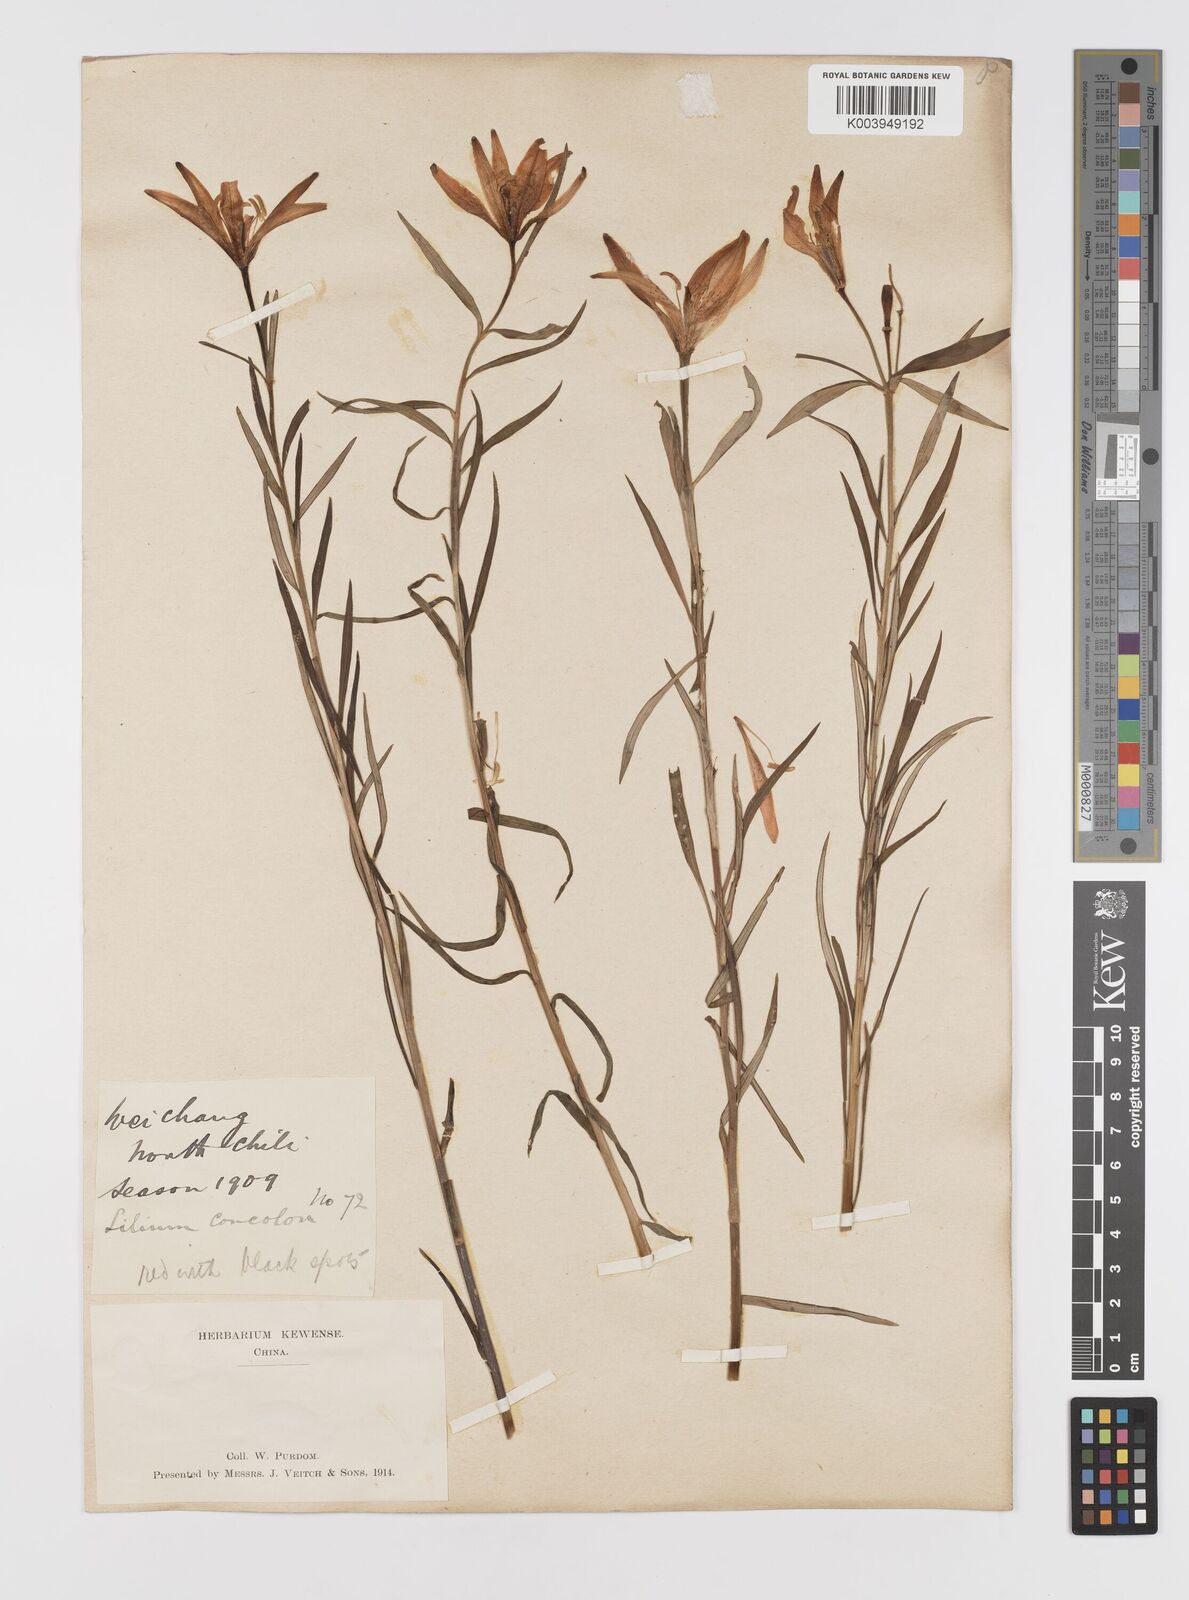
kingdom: Plantae
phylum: Tracheophyta
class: Liliopsida
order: Liliales
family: Liliaceae
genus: Lilium
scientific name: Lilium concolor
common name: Morning-star lily
